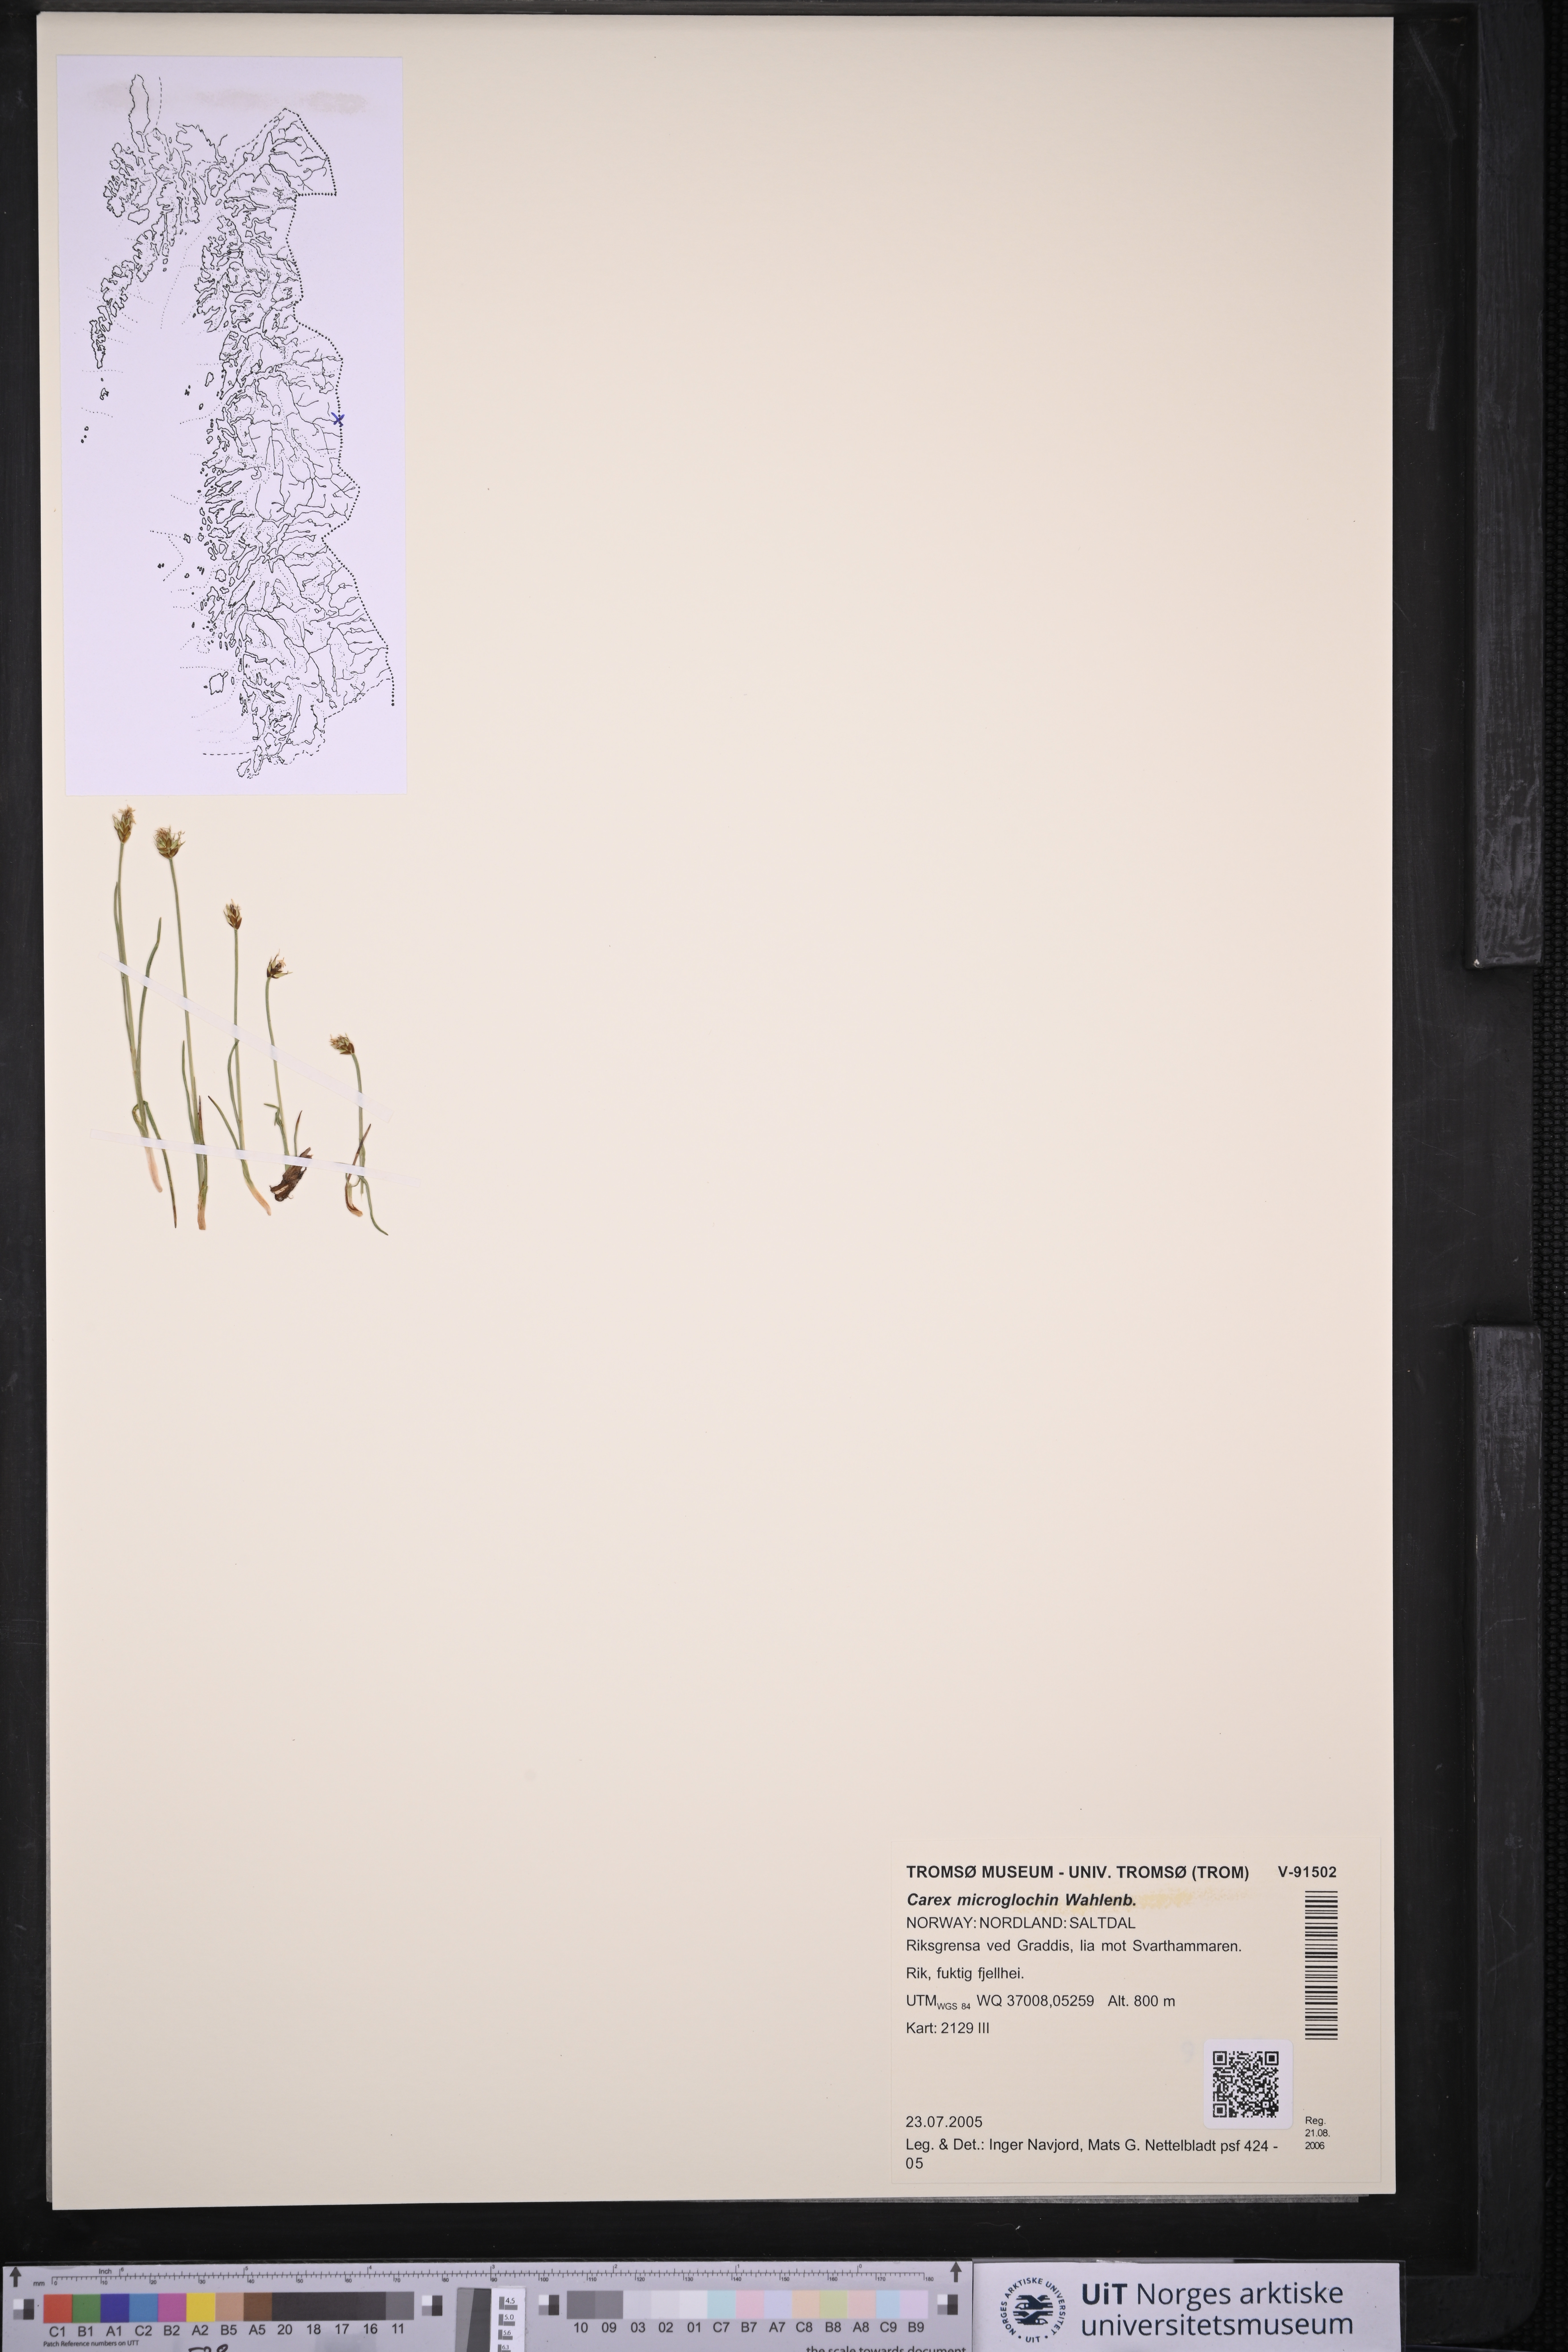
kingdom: Plantae
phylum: Tracheophyta
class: Liliopsida
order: Poales
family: Cyperaceae
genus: Carex
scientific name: Carex microglochin
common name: Bristle sedge
